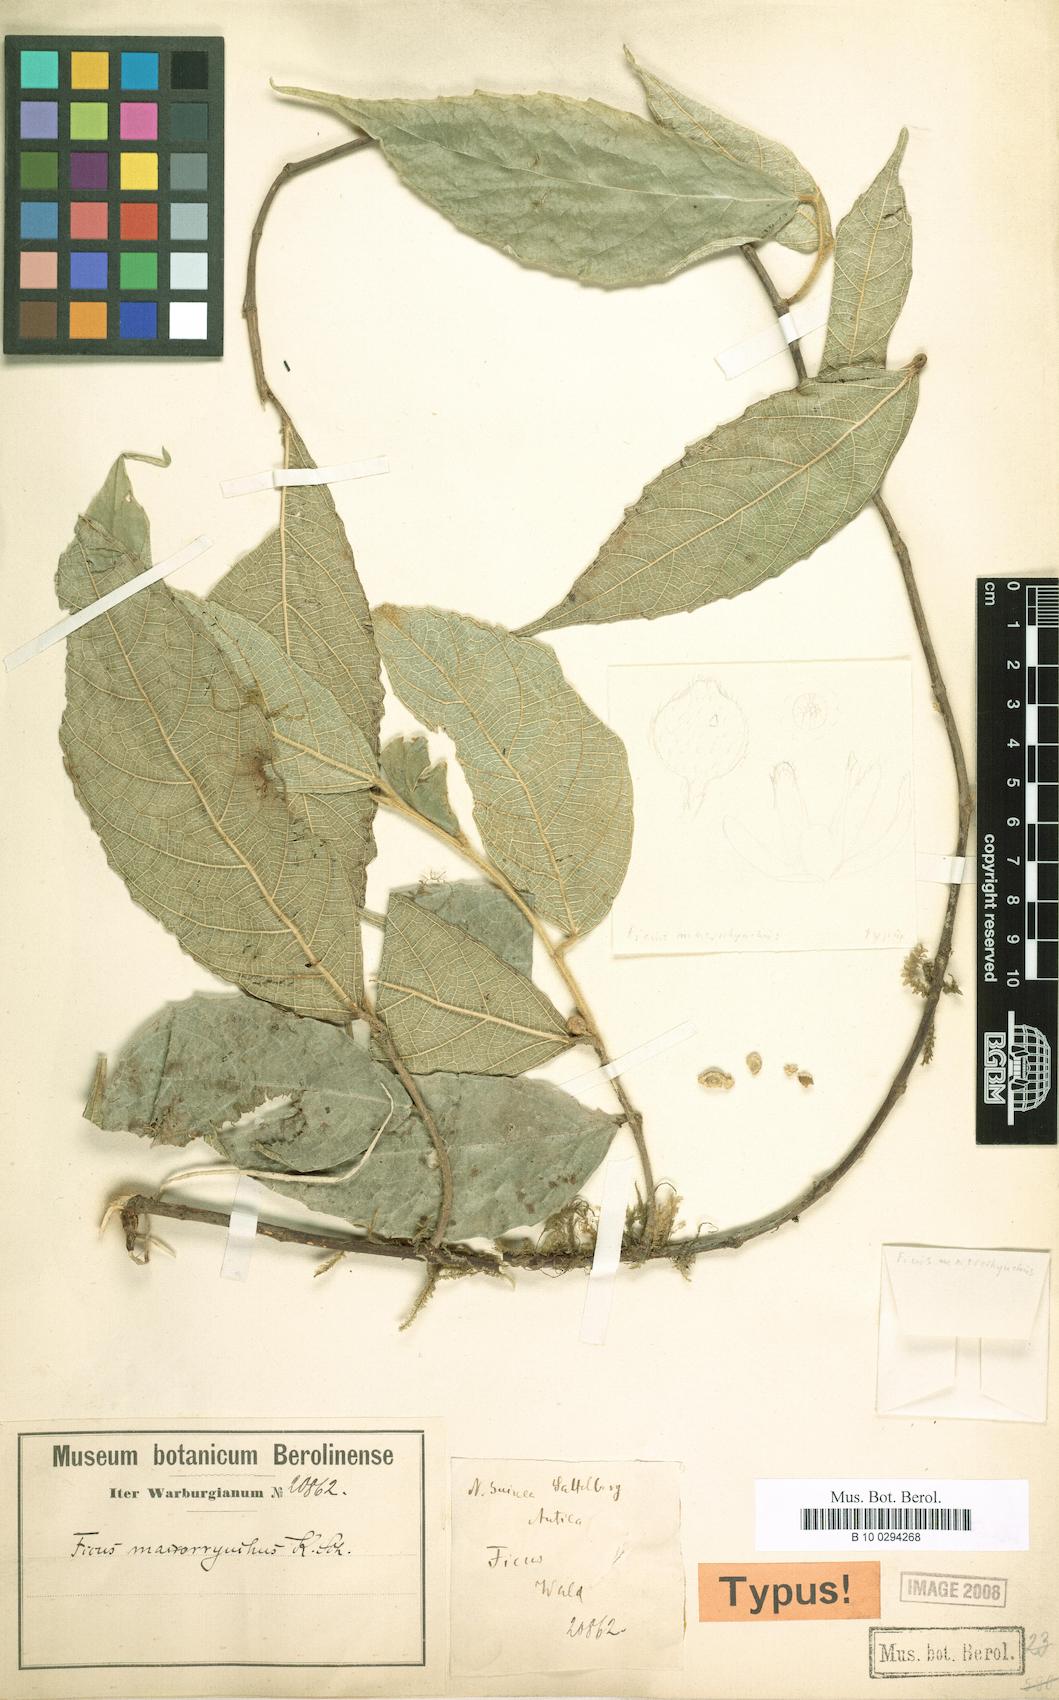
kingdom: Plantae
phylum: Tracheophyta
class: Magnoliopsida
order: Rosales
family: Moraceae
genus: Ficus
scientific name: Ficus macrorrhyncha
